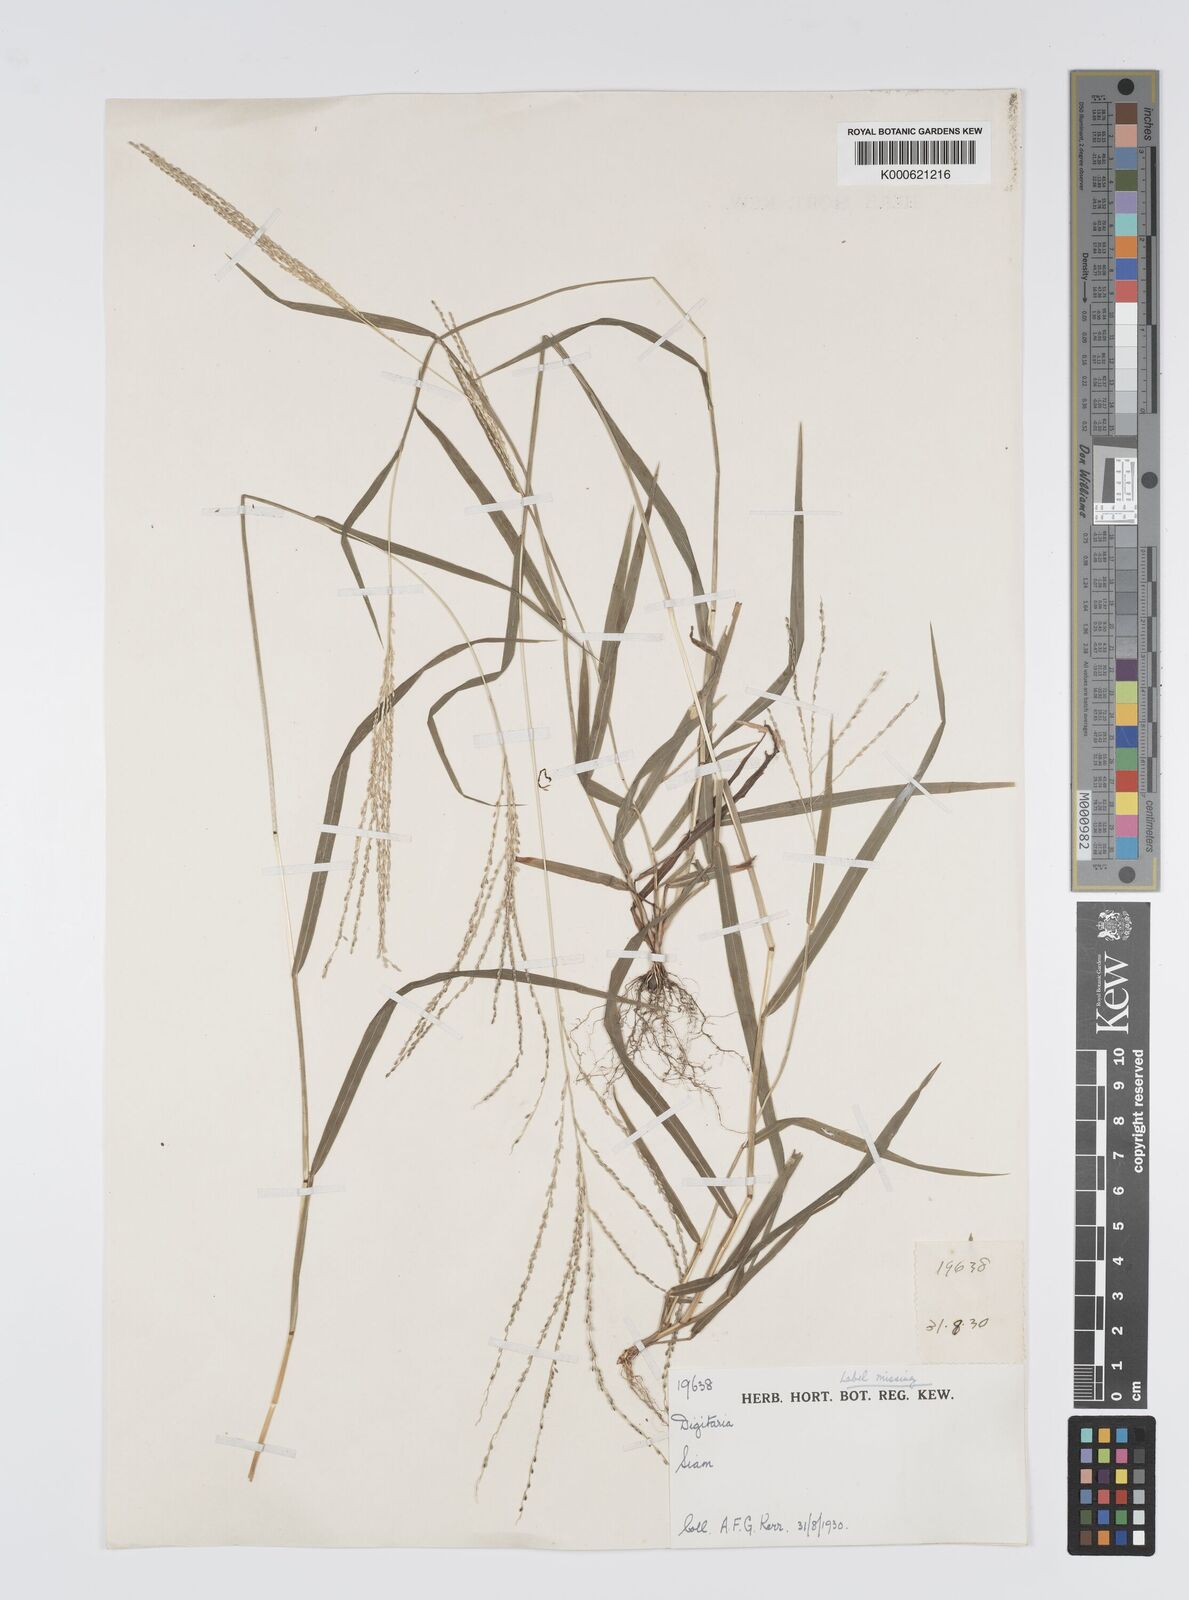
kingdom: Plantae
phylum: Tracheophyta
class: Liliopsida
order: Poales
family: Poaceae
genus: Digitaria
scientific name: Digitaria sparsifructus
